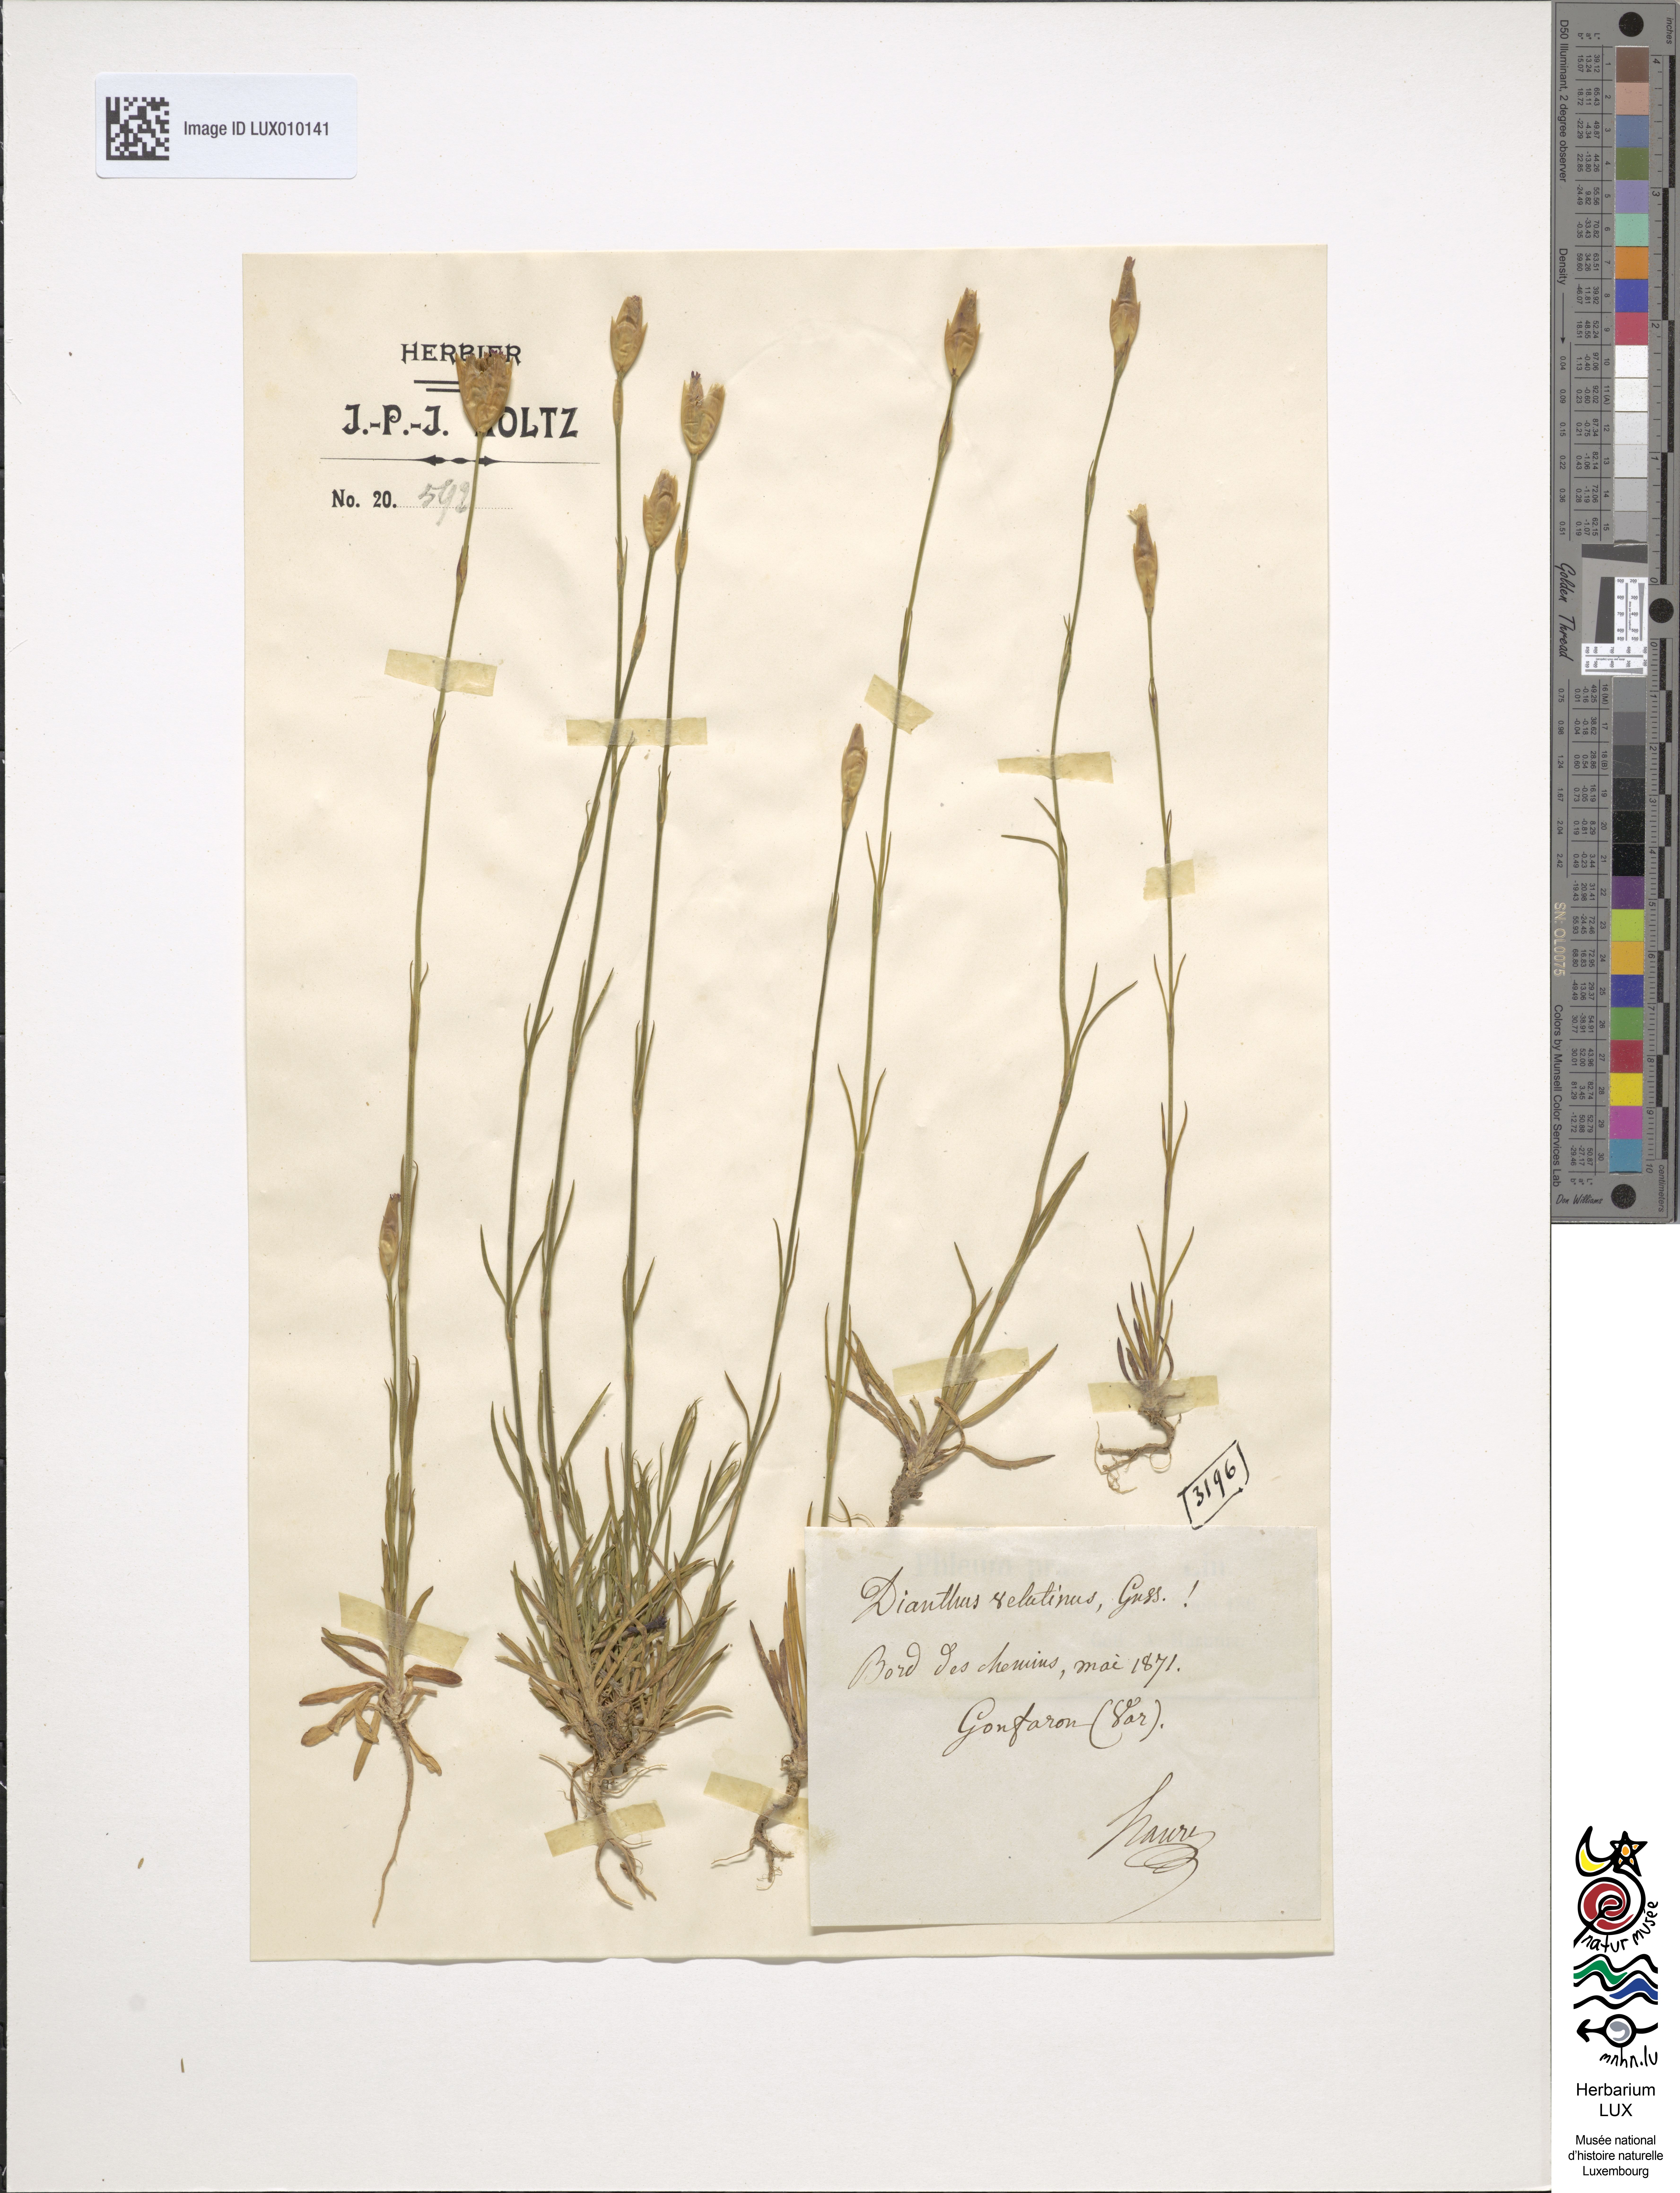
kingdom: Plantae
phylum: Tracheophyta
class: Magnoliopsida
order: Caryophyllales
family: Caryophyllaceae
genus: Petrorhagia
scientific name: Petrorhagia dubia
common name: Hairypink
